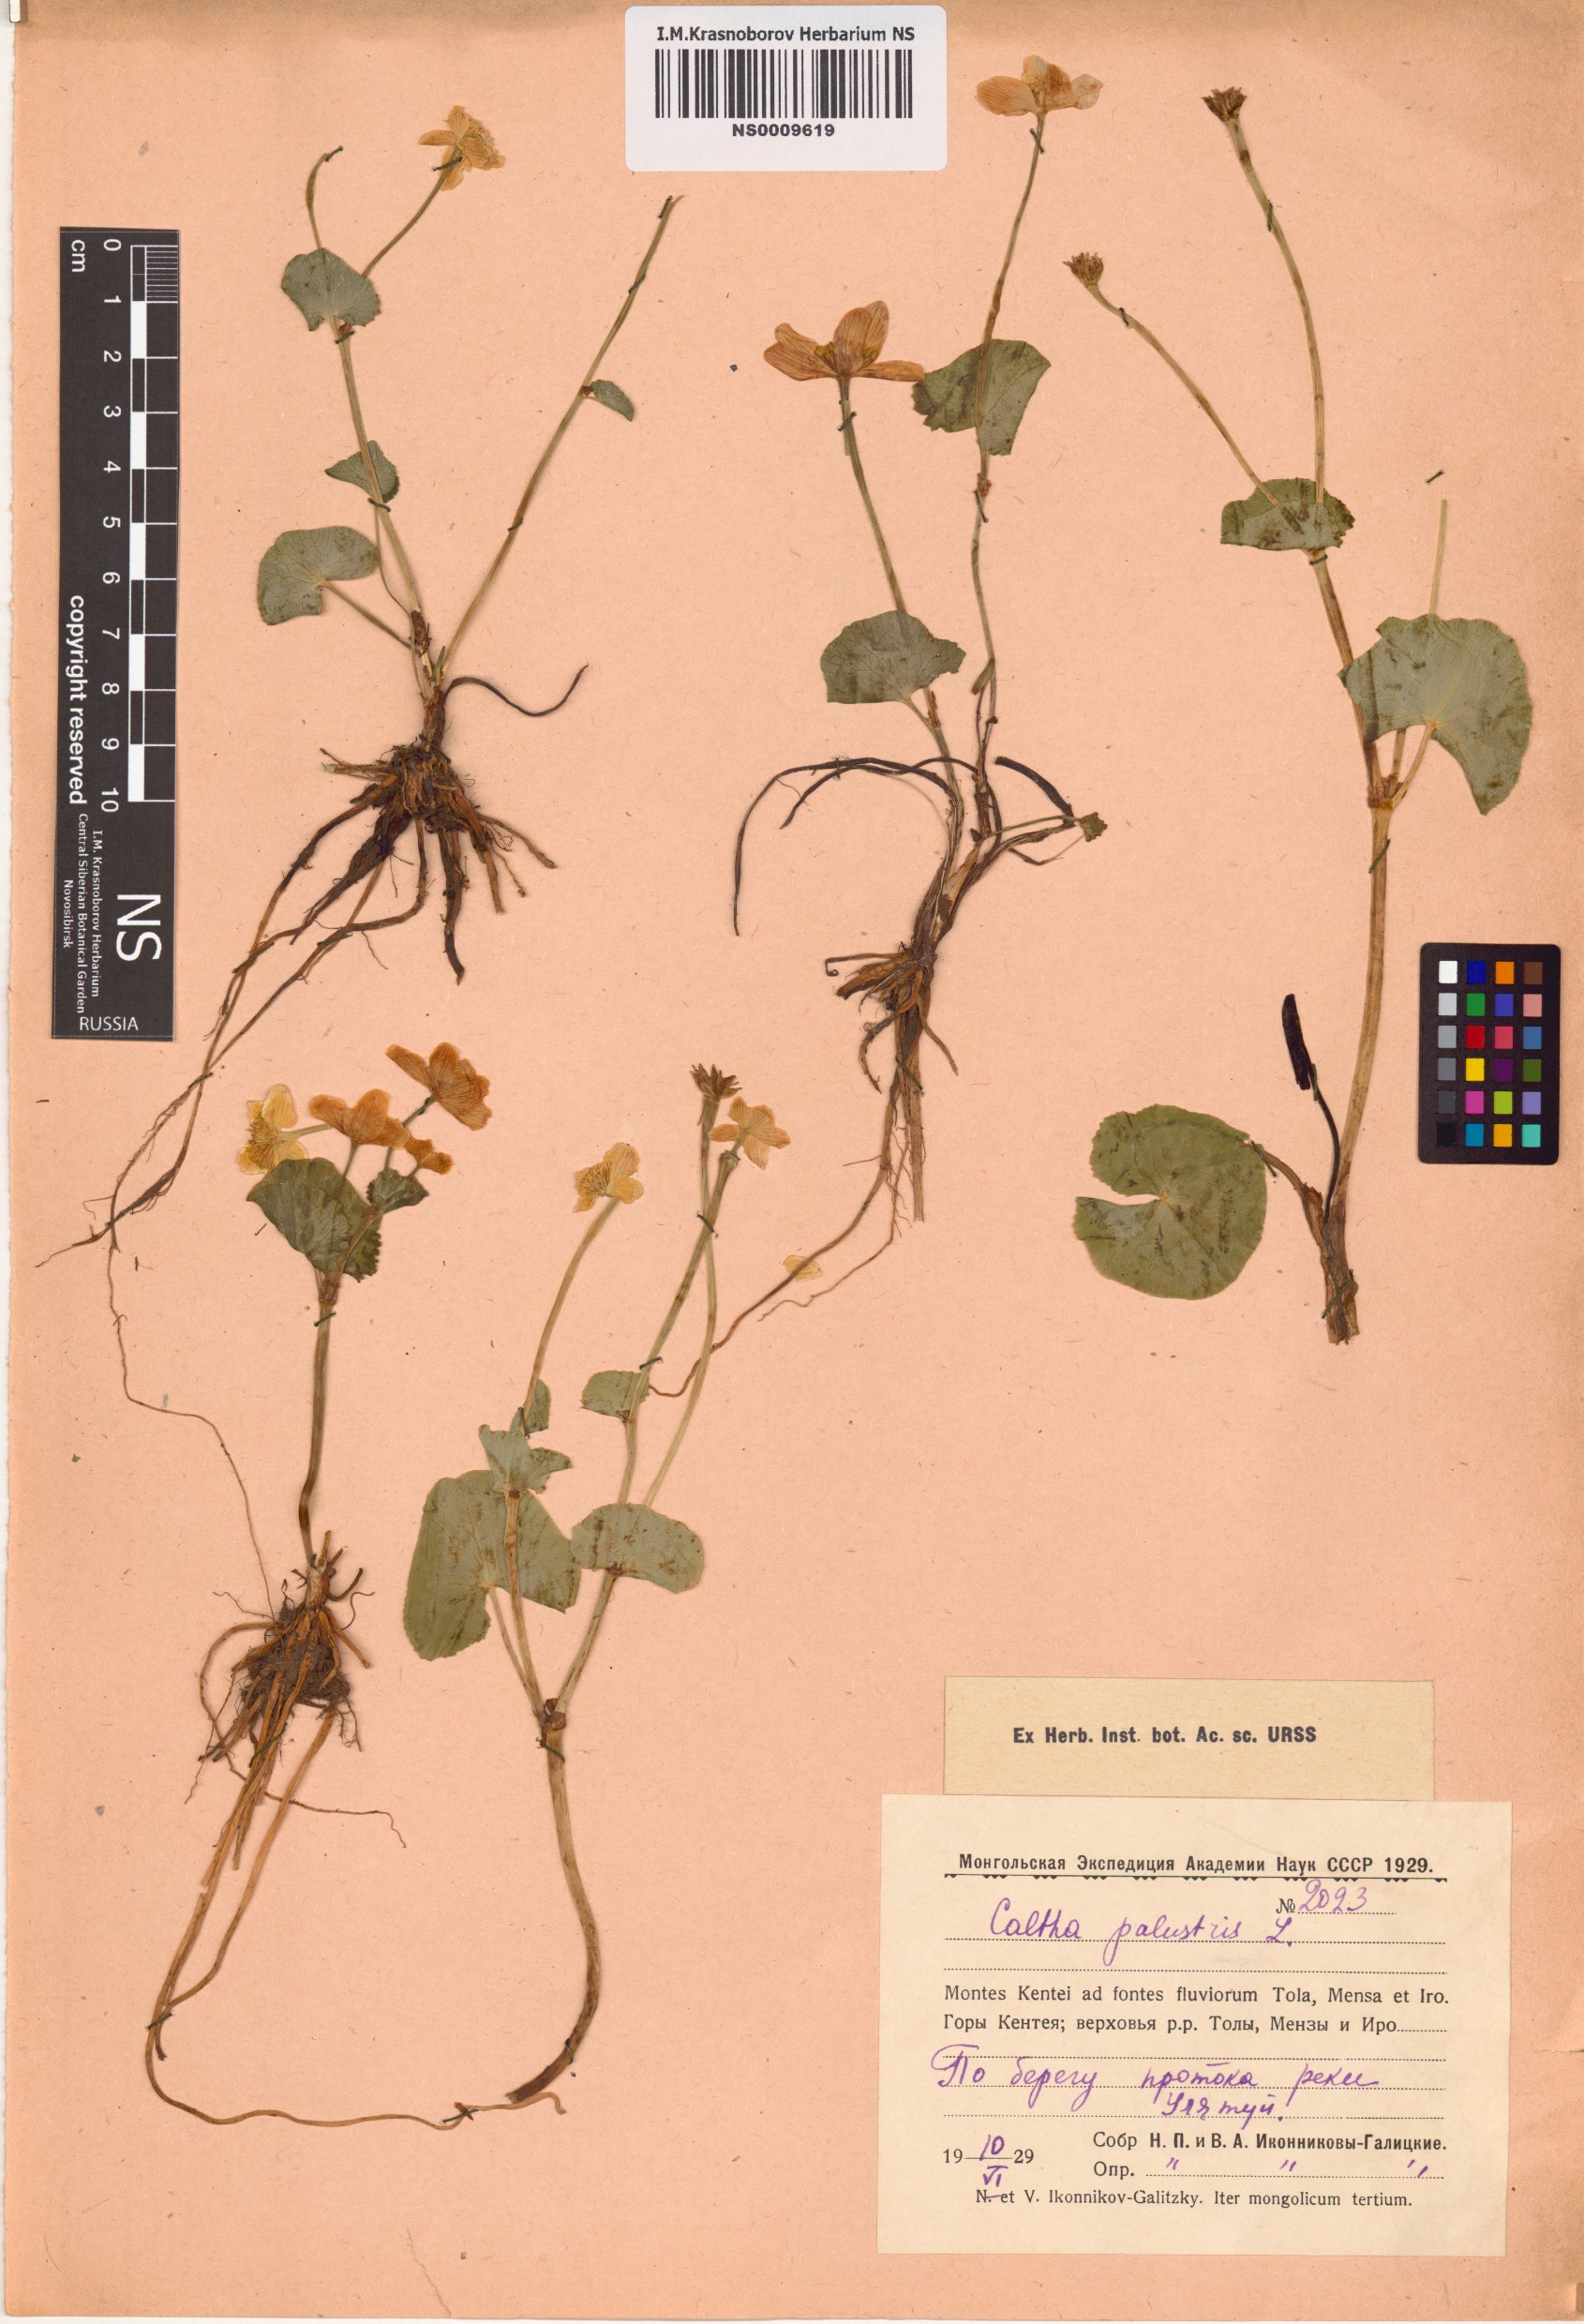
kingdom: Plantae
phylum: Tracheophyta
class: Magnoliopsida
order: Ranunculales
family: Ranunculaceae
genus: Caltha
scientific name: Caltha palustris
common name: Marsh marigold
